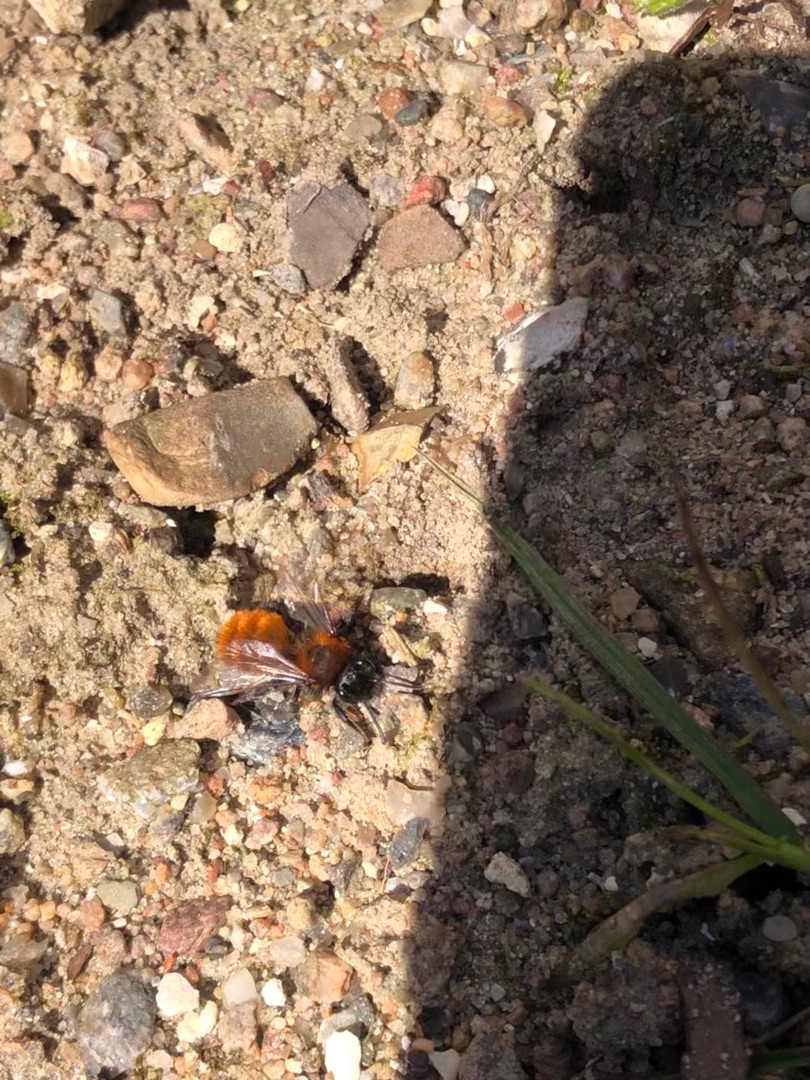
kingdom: Animalia
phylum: Arthropoda
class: Insecta
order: Hymenoptera
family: Andrenidae
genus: Andrena
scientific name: Andrena fulva
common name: Rødpelset jordbi
